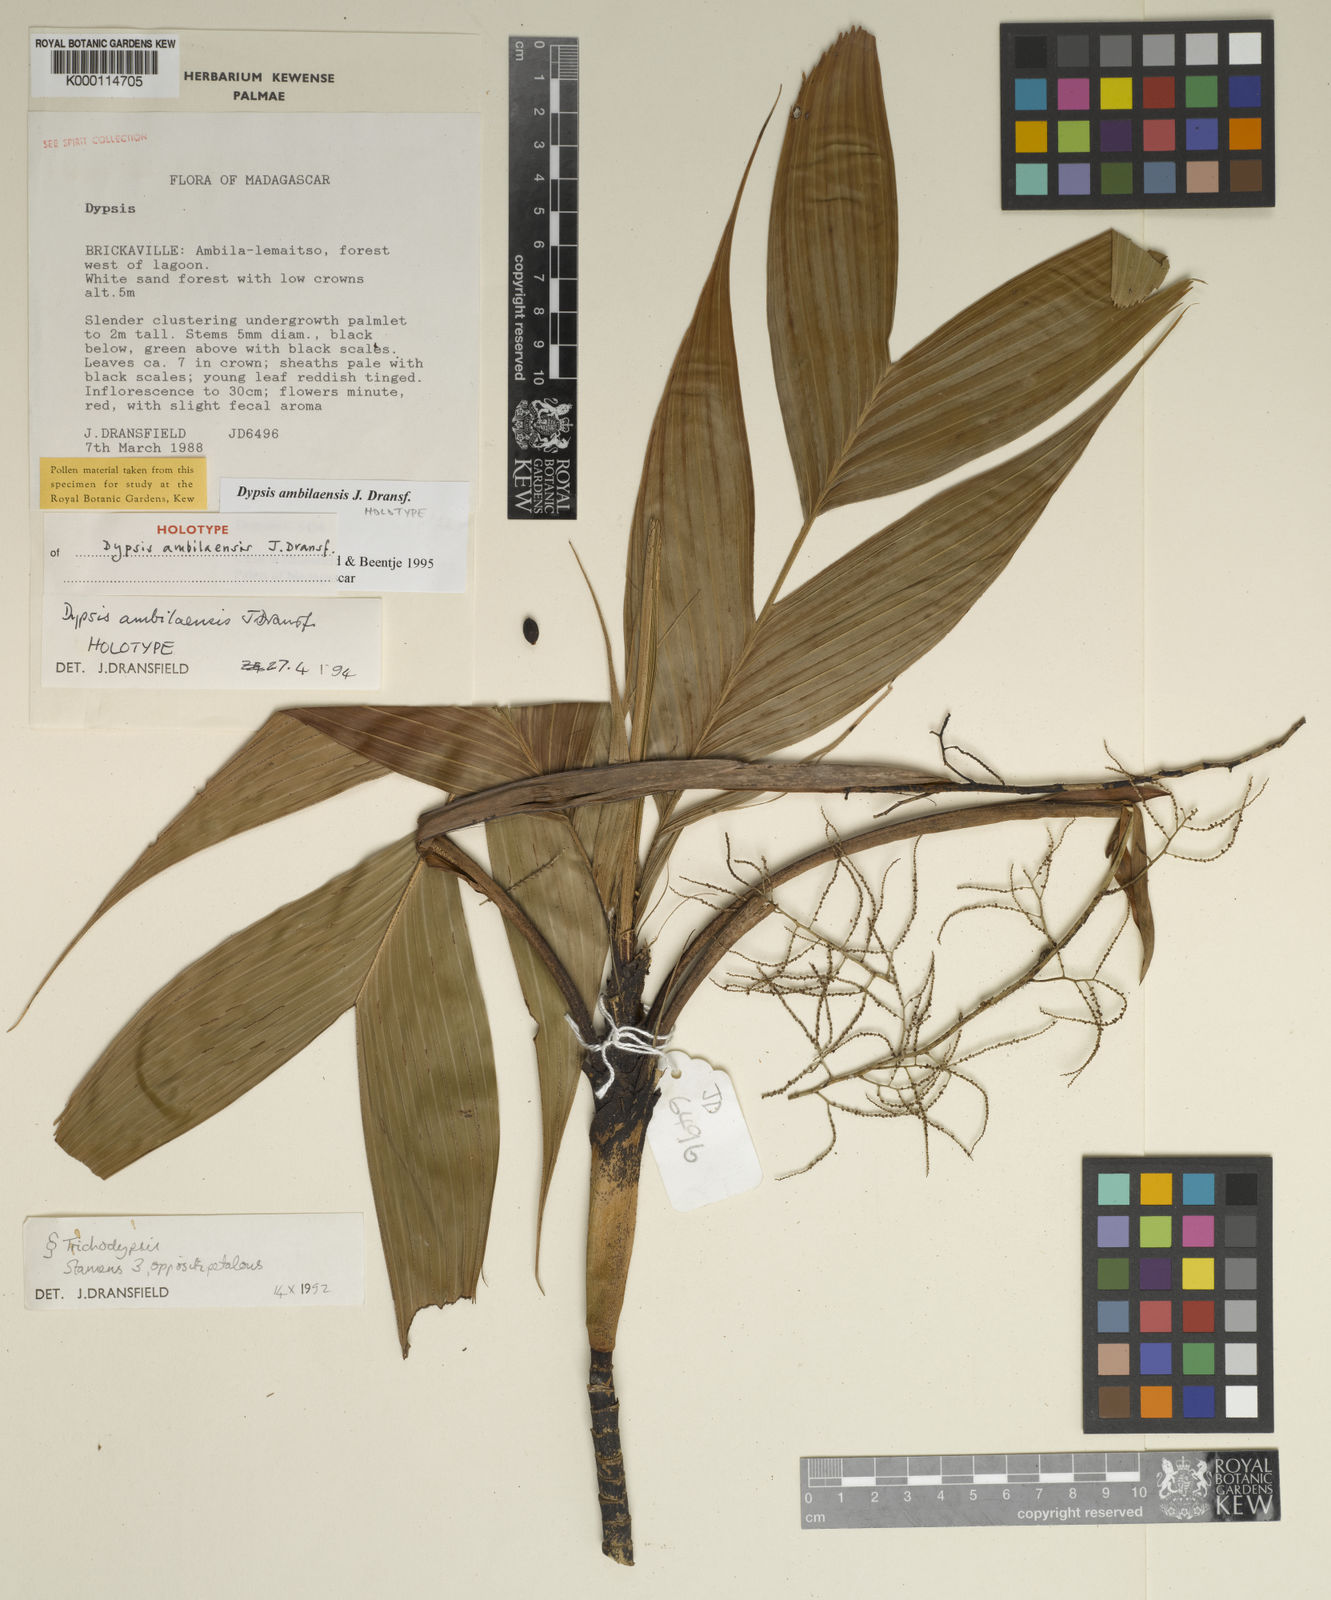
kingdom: Plantae
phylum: Tracheophyta
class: Liliopsida
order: Arecales
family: Arecaceae
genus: Dypsis
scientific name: Dypsis ambilaensis
